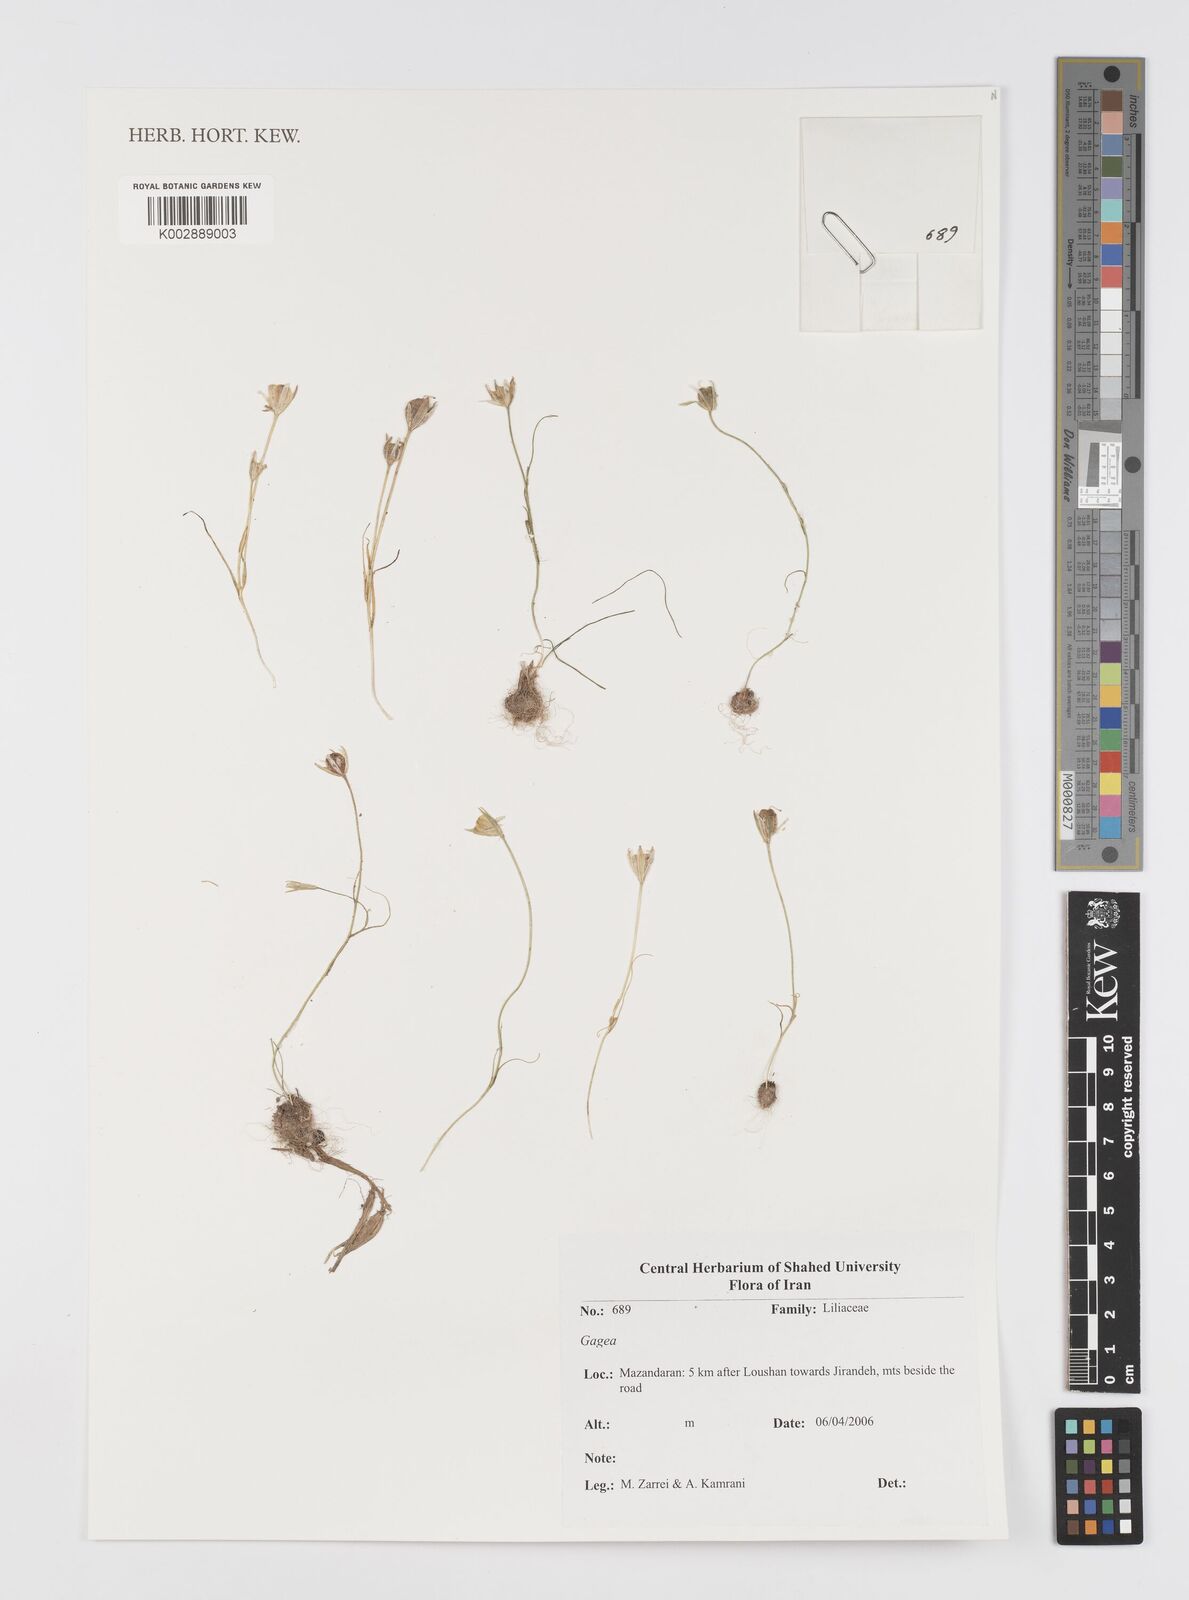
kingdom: Plantae
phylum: Tracheophyta
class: Liliopsida
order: Liliales
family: Liliaceae
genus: Gagea
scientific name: Gagea
